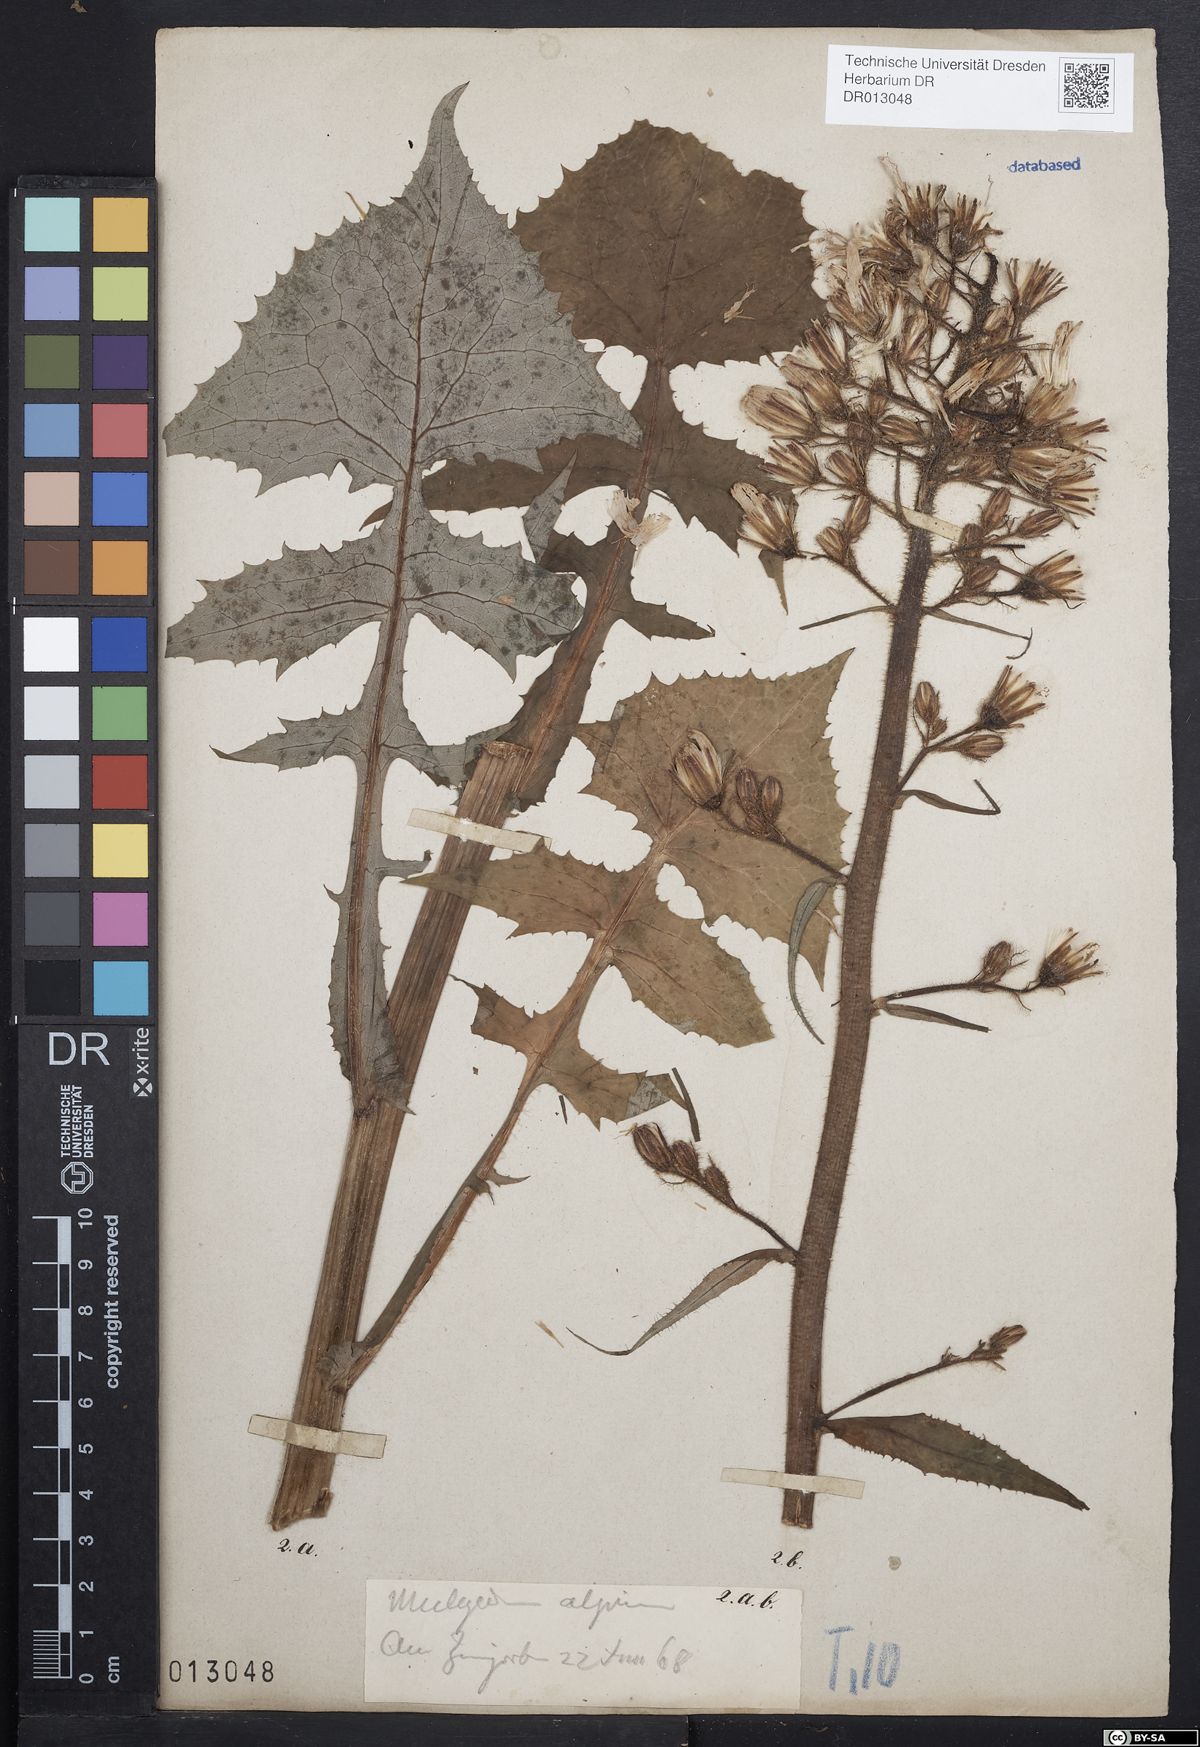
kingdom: Plantae
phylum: Tracheophyta
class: Magnoliopsida
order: Asterales
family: Asteraceae
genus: Cicerbita
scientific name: Cicerbita alpina
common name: Alpine blue-sow-thistle
